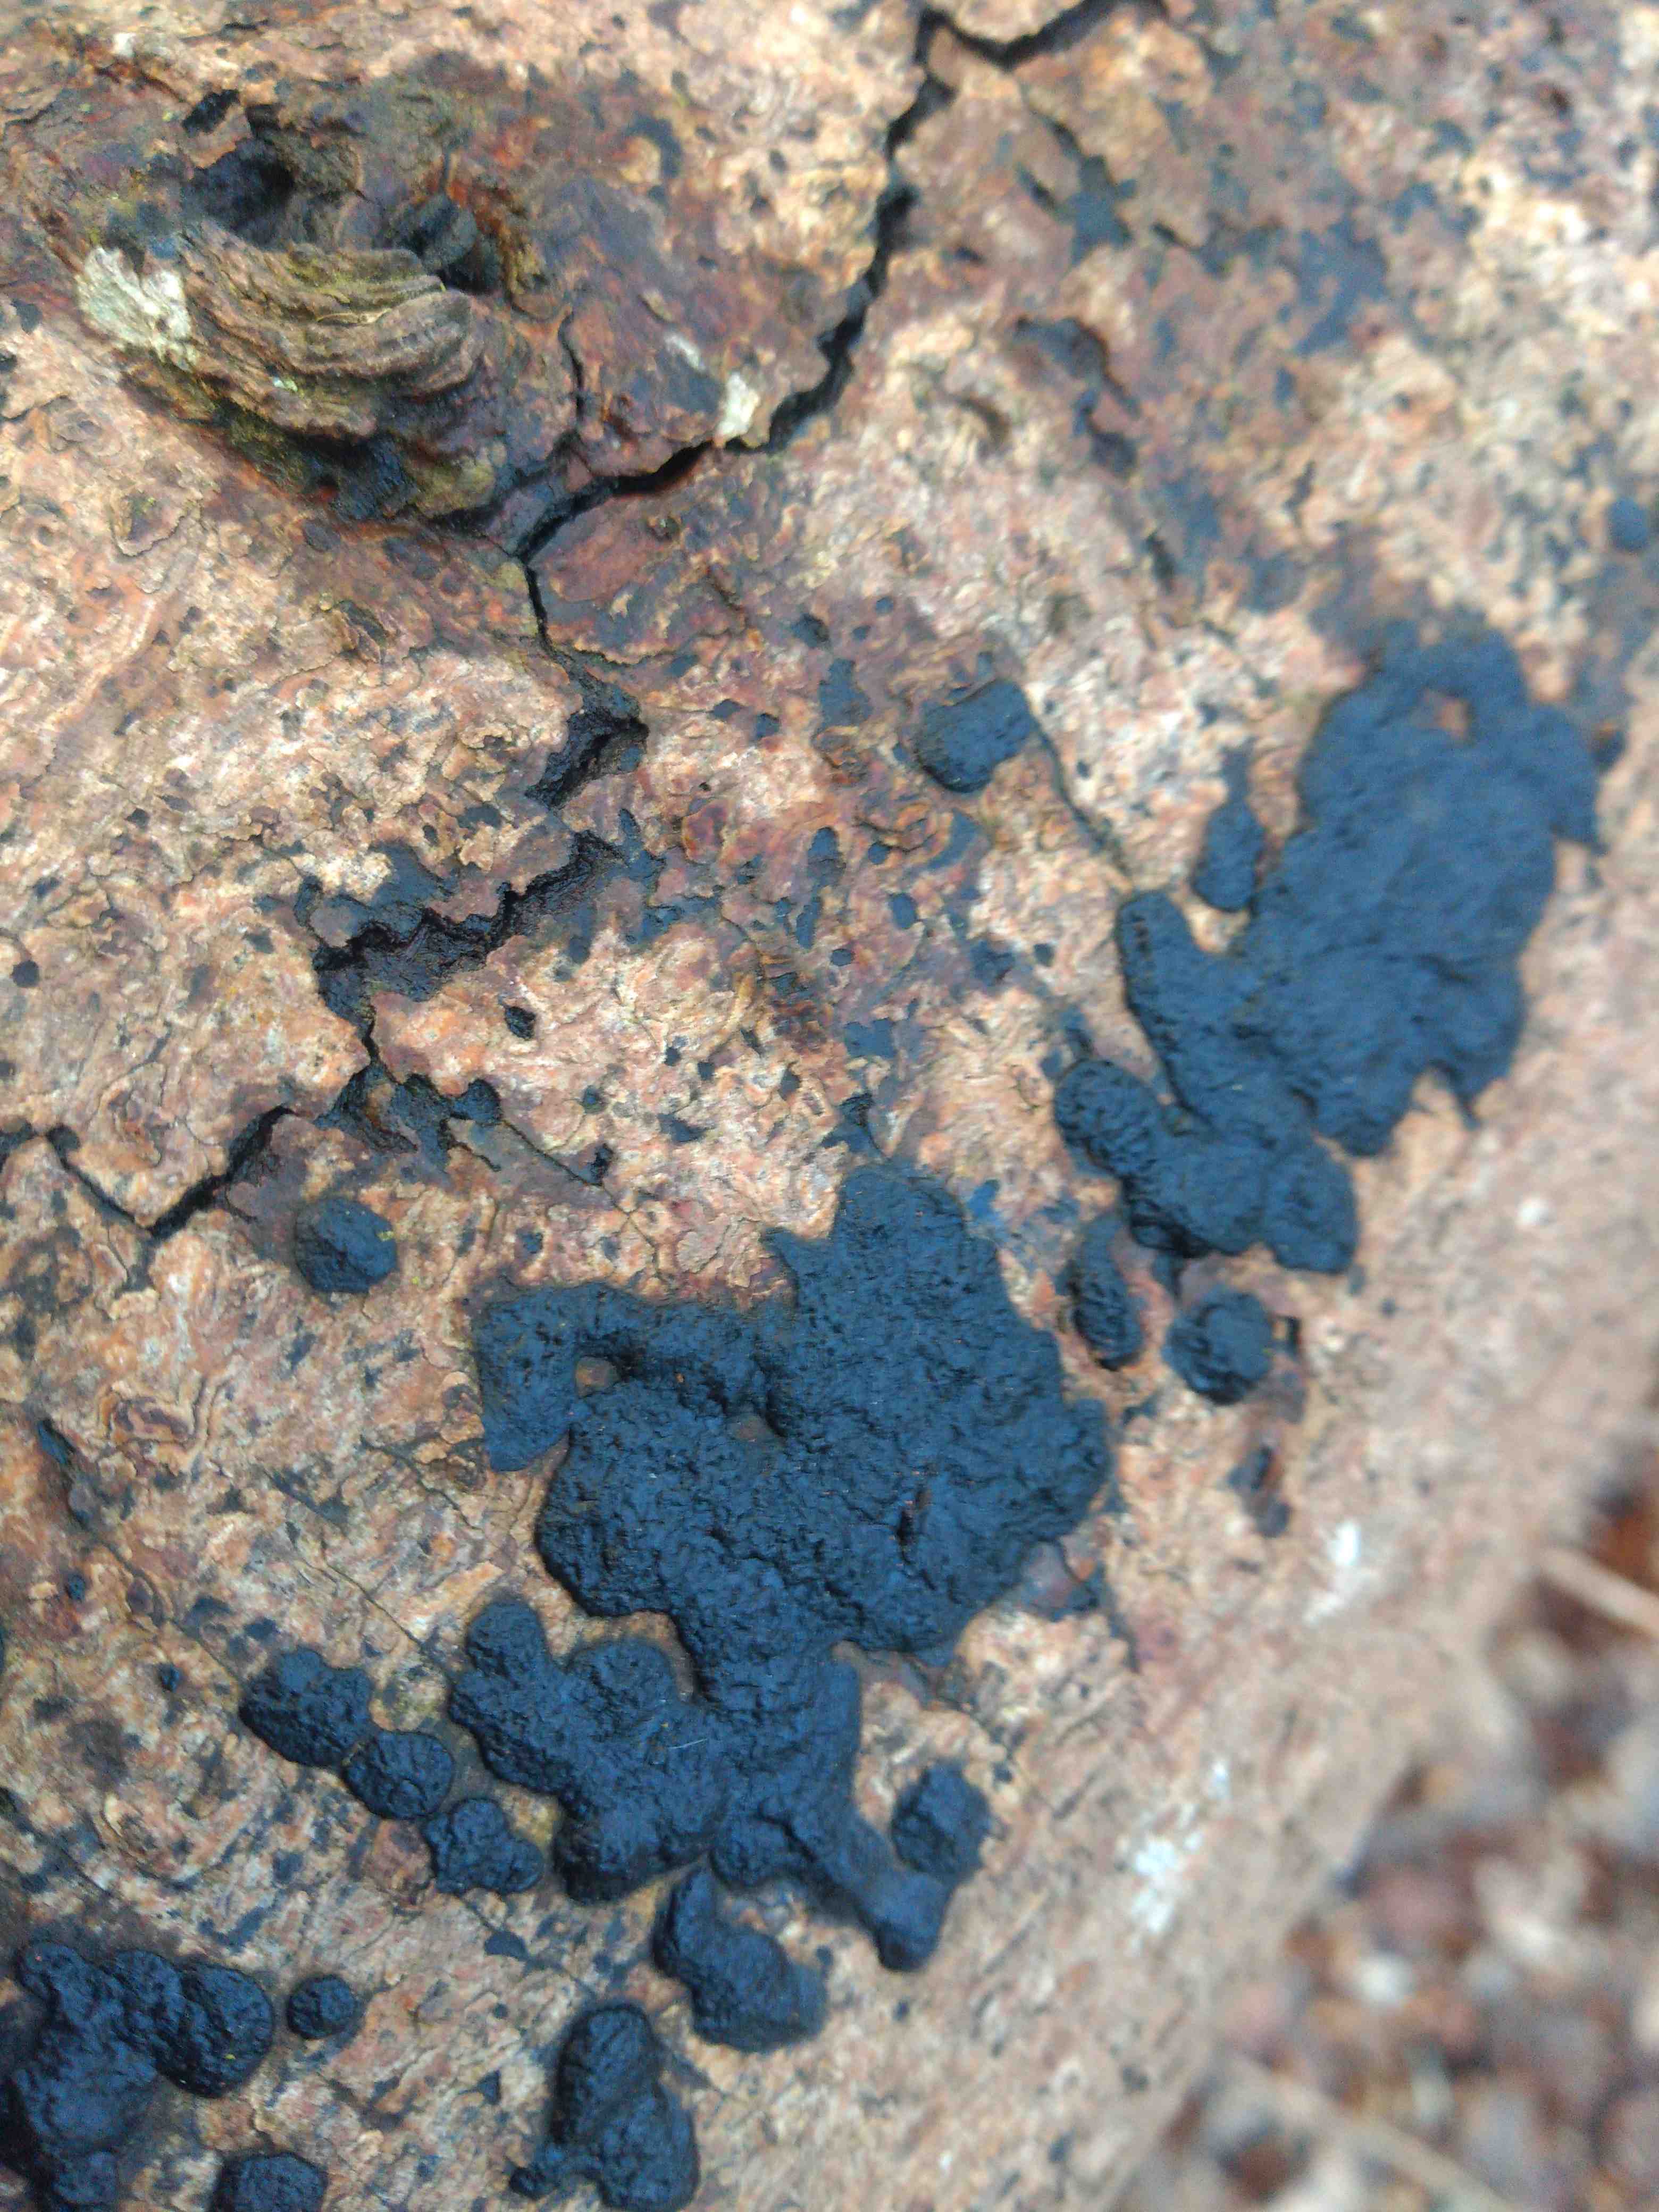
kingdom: Fungi
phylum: Basidiomycota
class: Agaricomycetes
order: Auriculariales
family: Auriculariaceae
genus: Exidia
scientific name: Exidia pithya
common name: gran-bævretop
